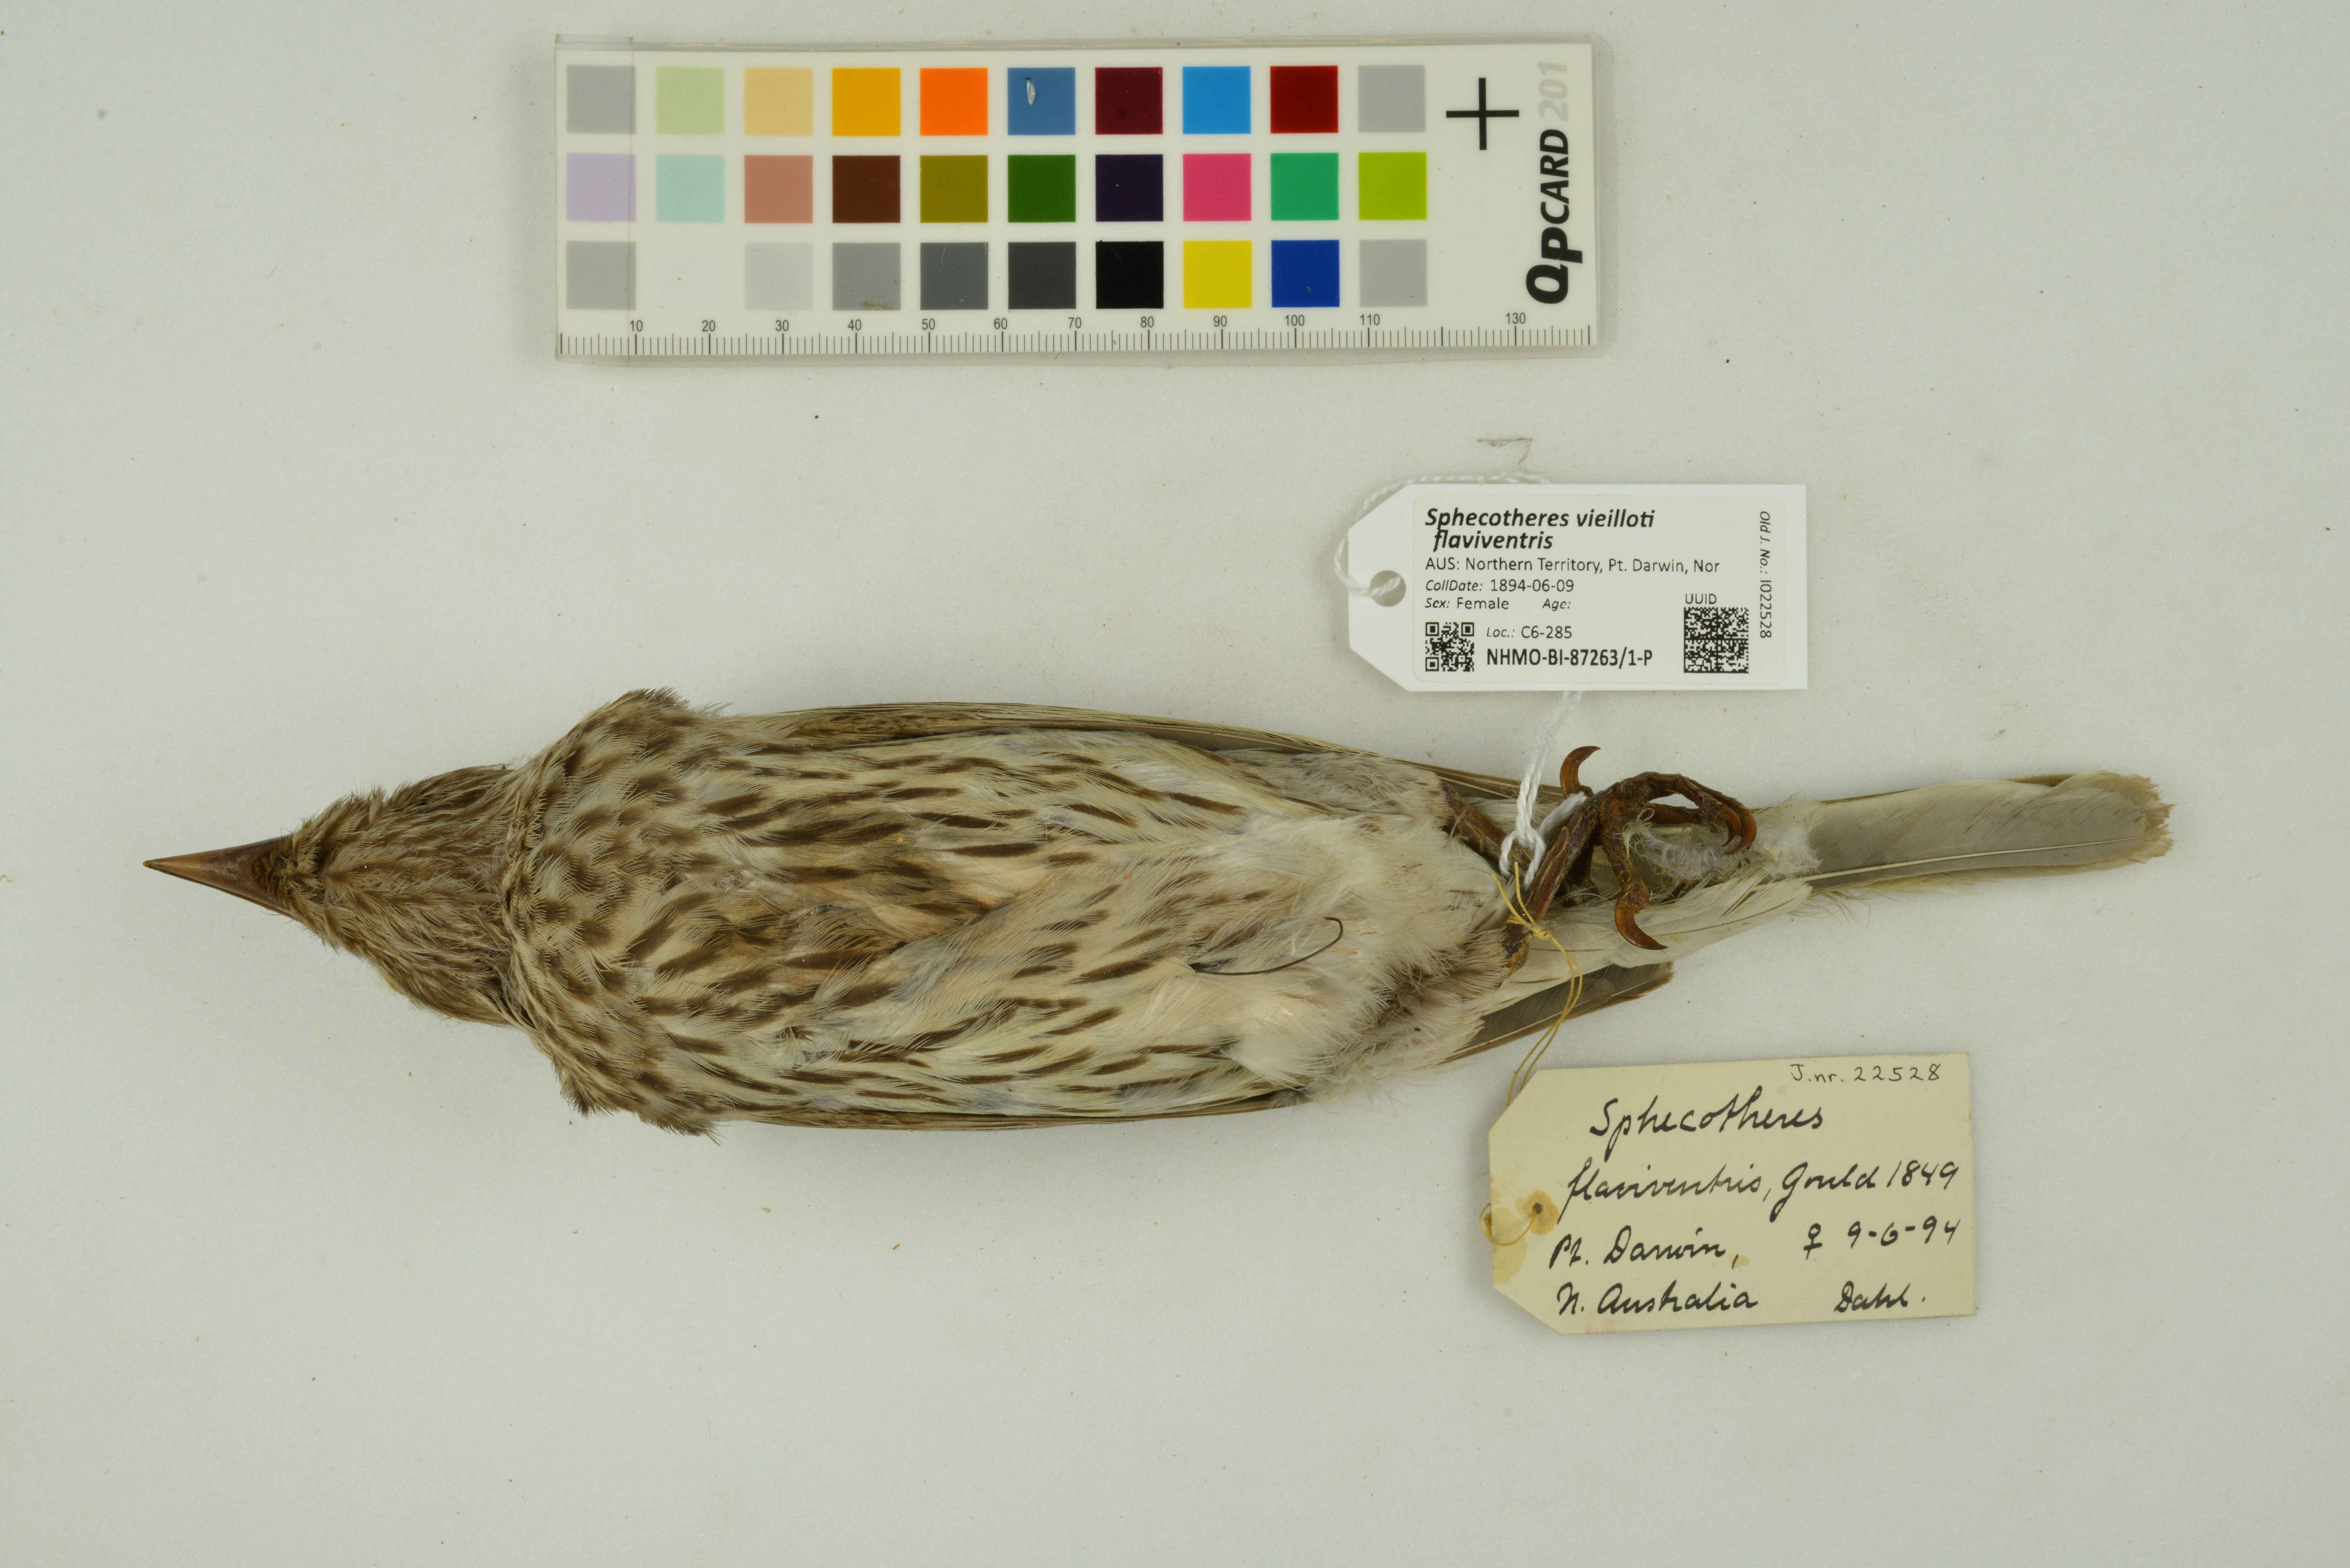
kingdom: Animalia
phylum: Chordata
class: Aves
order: Passeriformes
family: Oriolidae
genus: Sphecotheres
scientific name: Sphecotheres vieilloti
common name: Australasian figbird
